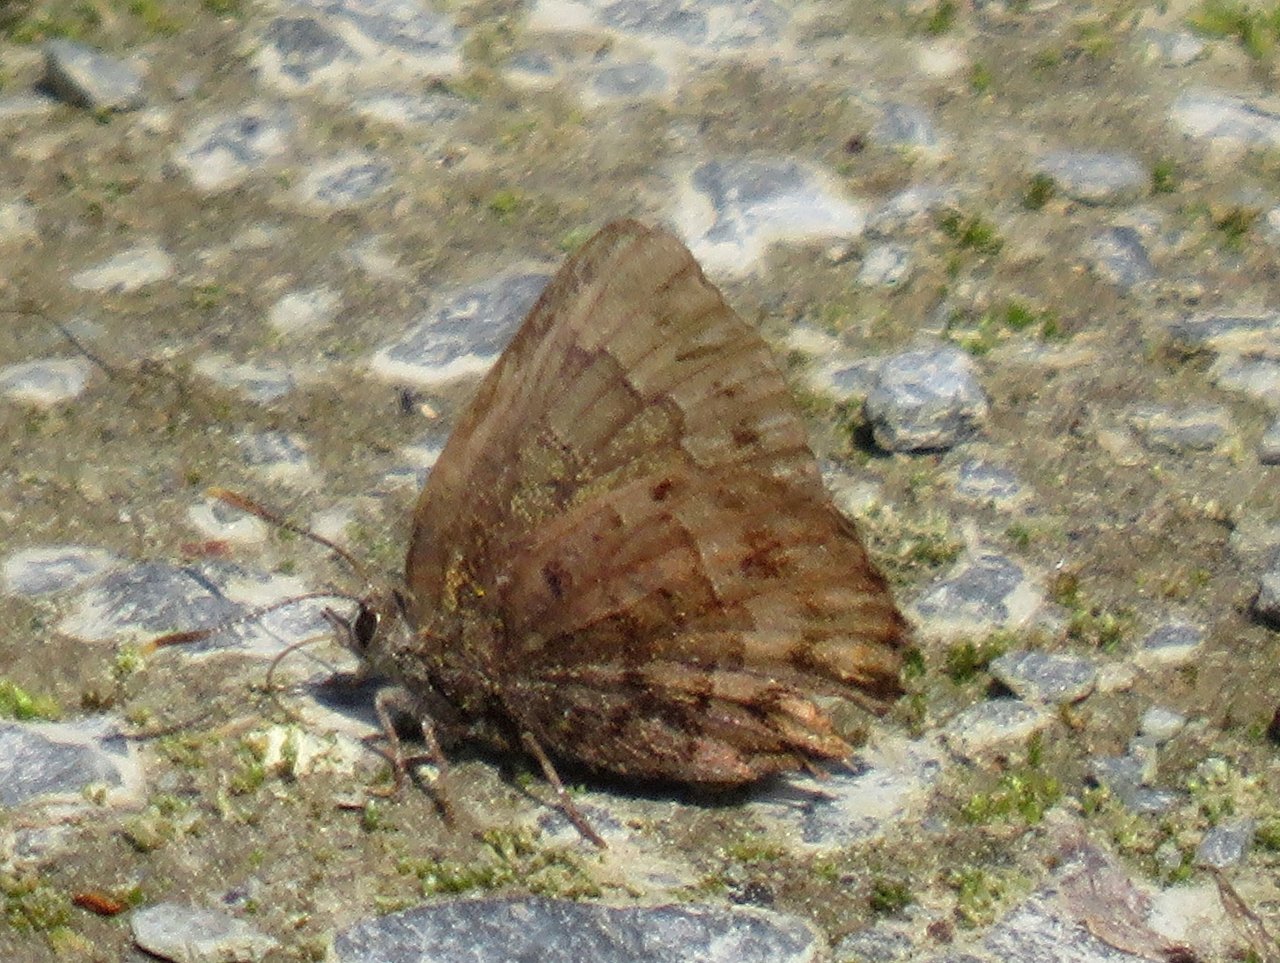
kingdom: Animalia
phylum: Arthropoda
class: Insecta
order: Lepidoptera
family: Lycaenidae
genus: Incisalia
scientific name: Incisalia niphon
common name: Eastern Pine Elfin
